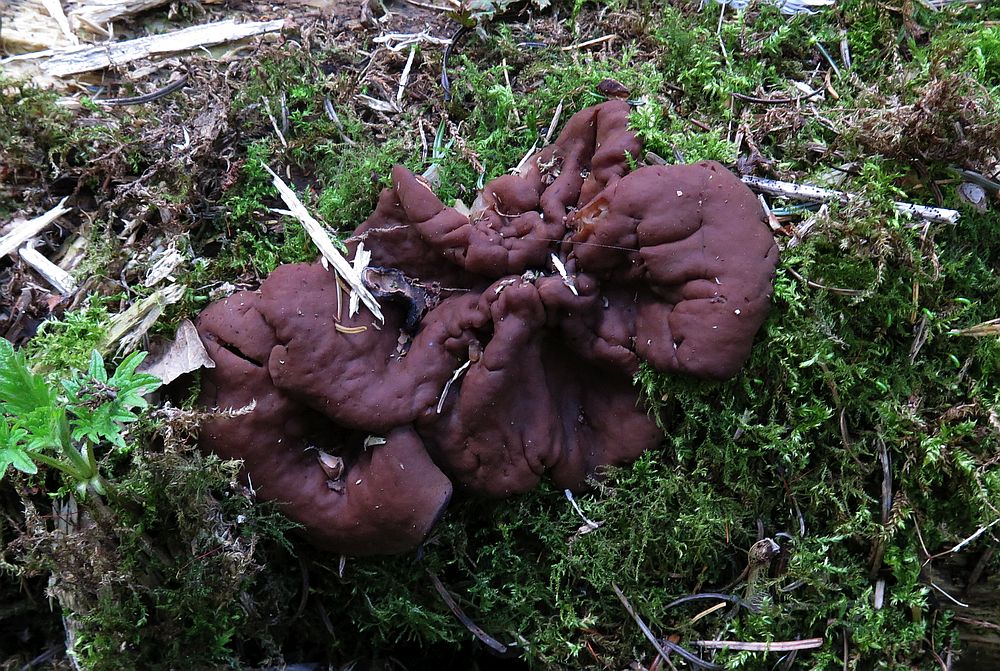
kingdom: Fungi
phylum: Ascomycota
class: Pezizomycetes
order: Pezizales
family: Discinaceae
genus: Discina
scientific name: Discina ancilis
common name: udbredt stenmorkel
